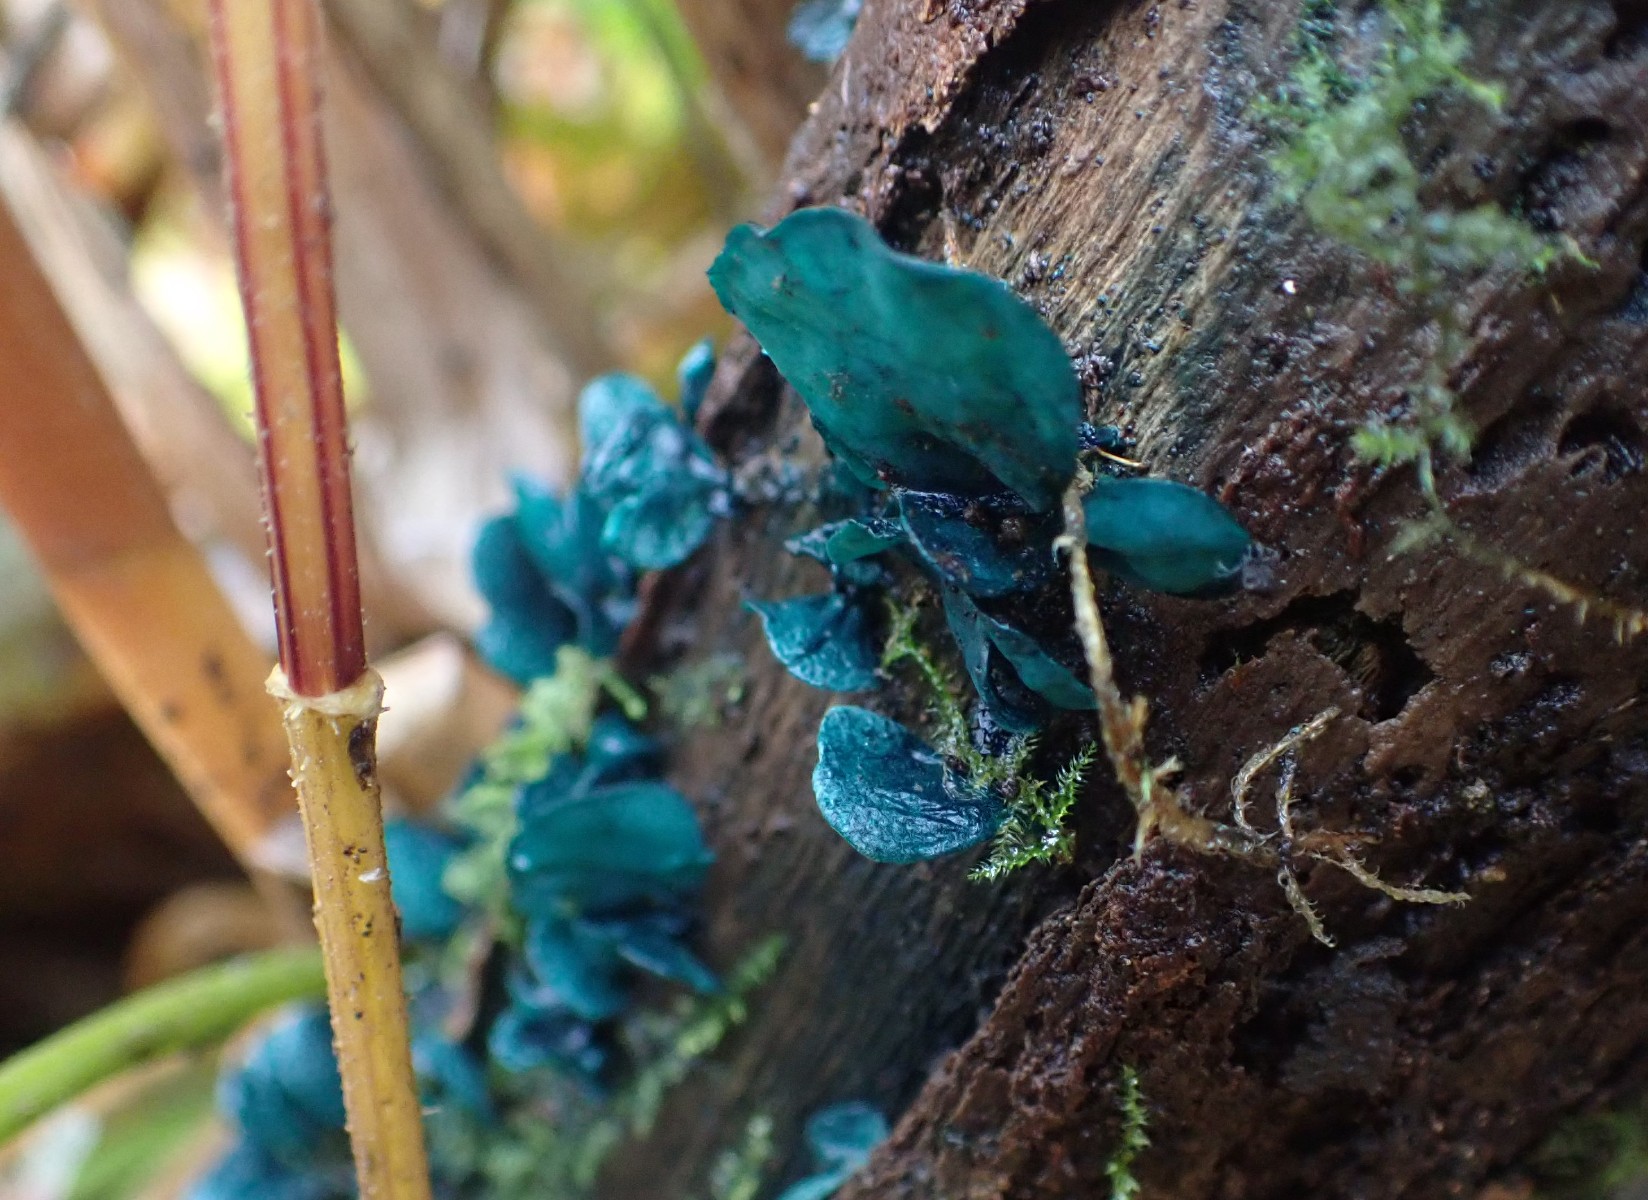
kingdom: Fungi
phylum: Ascomycota
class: Leotiomycetes
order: Helotiales
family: Chlorociboriaceae
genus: Chlorociboria
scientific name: Chlorociboria aeruginascens
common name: almindelig grønskive
